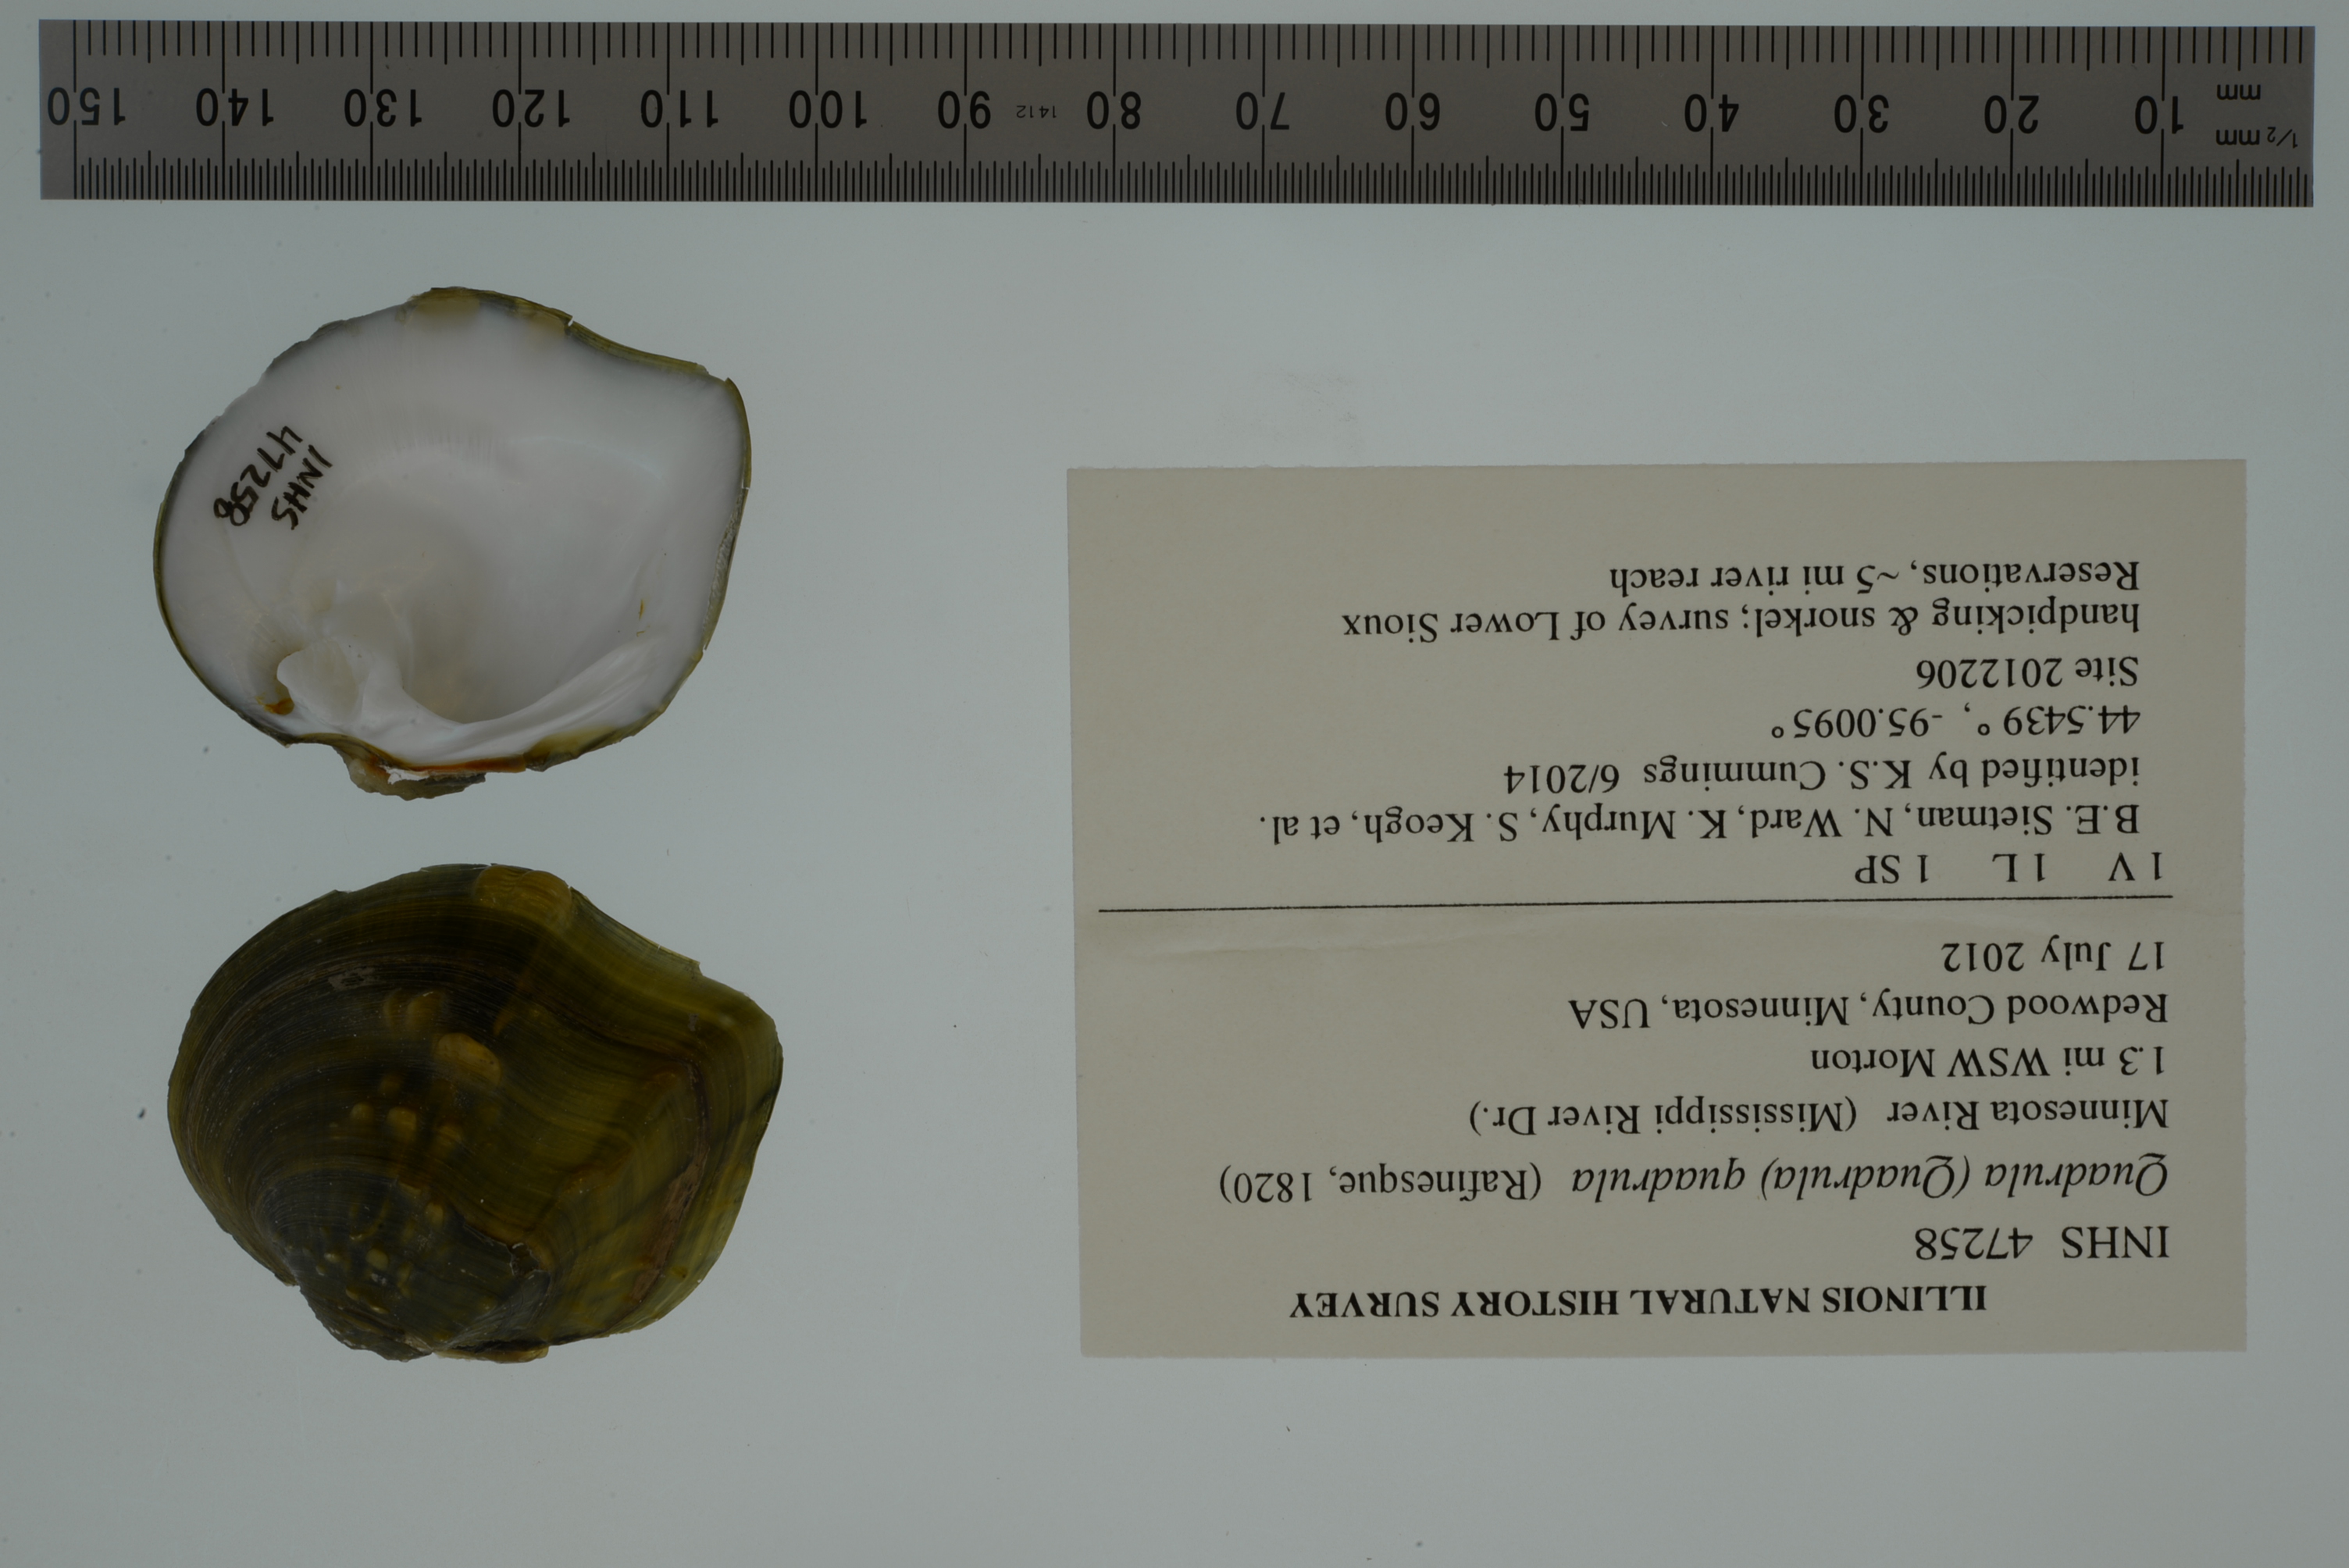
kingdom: Animalia
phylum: Mollusca
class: Bivalvia
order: Unionida
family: Unionidae
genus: Quadrula
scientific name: Quadrula quadrula
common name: Mapleleaf
